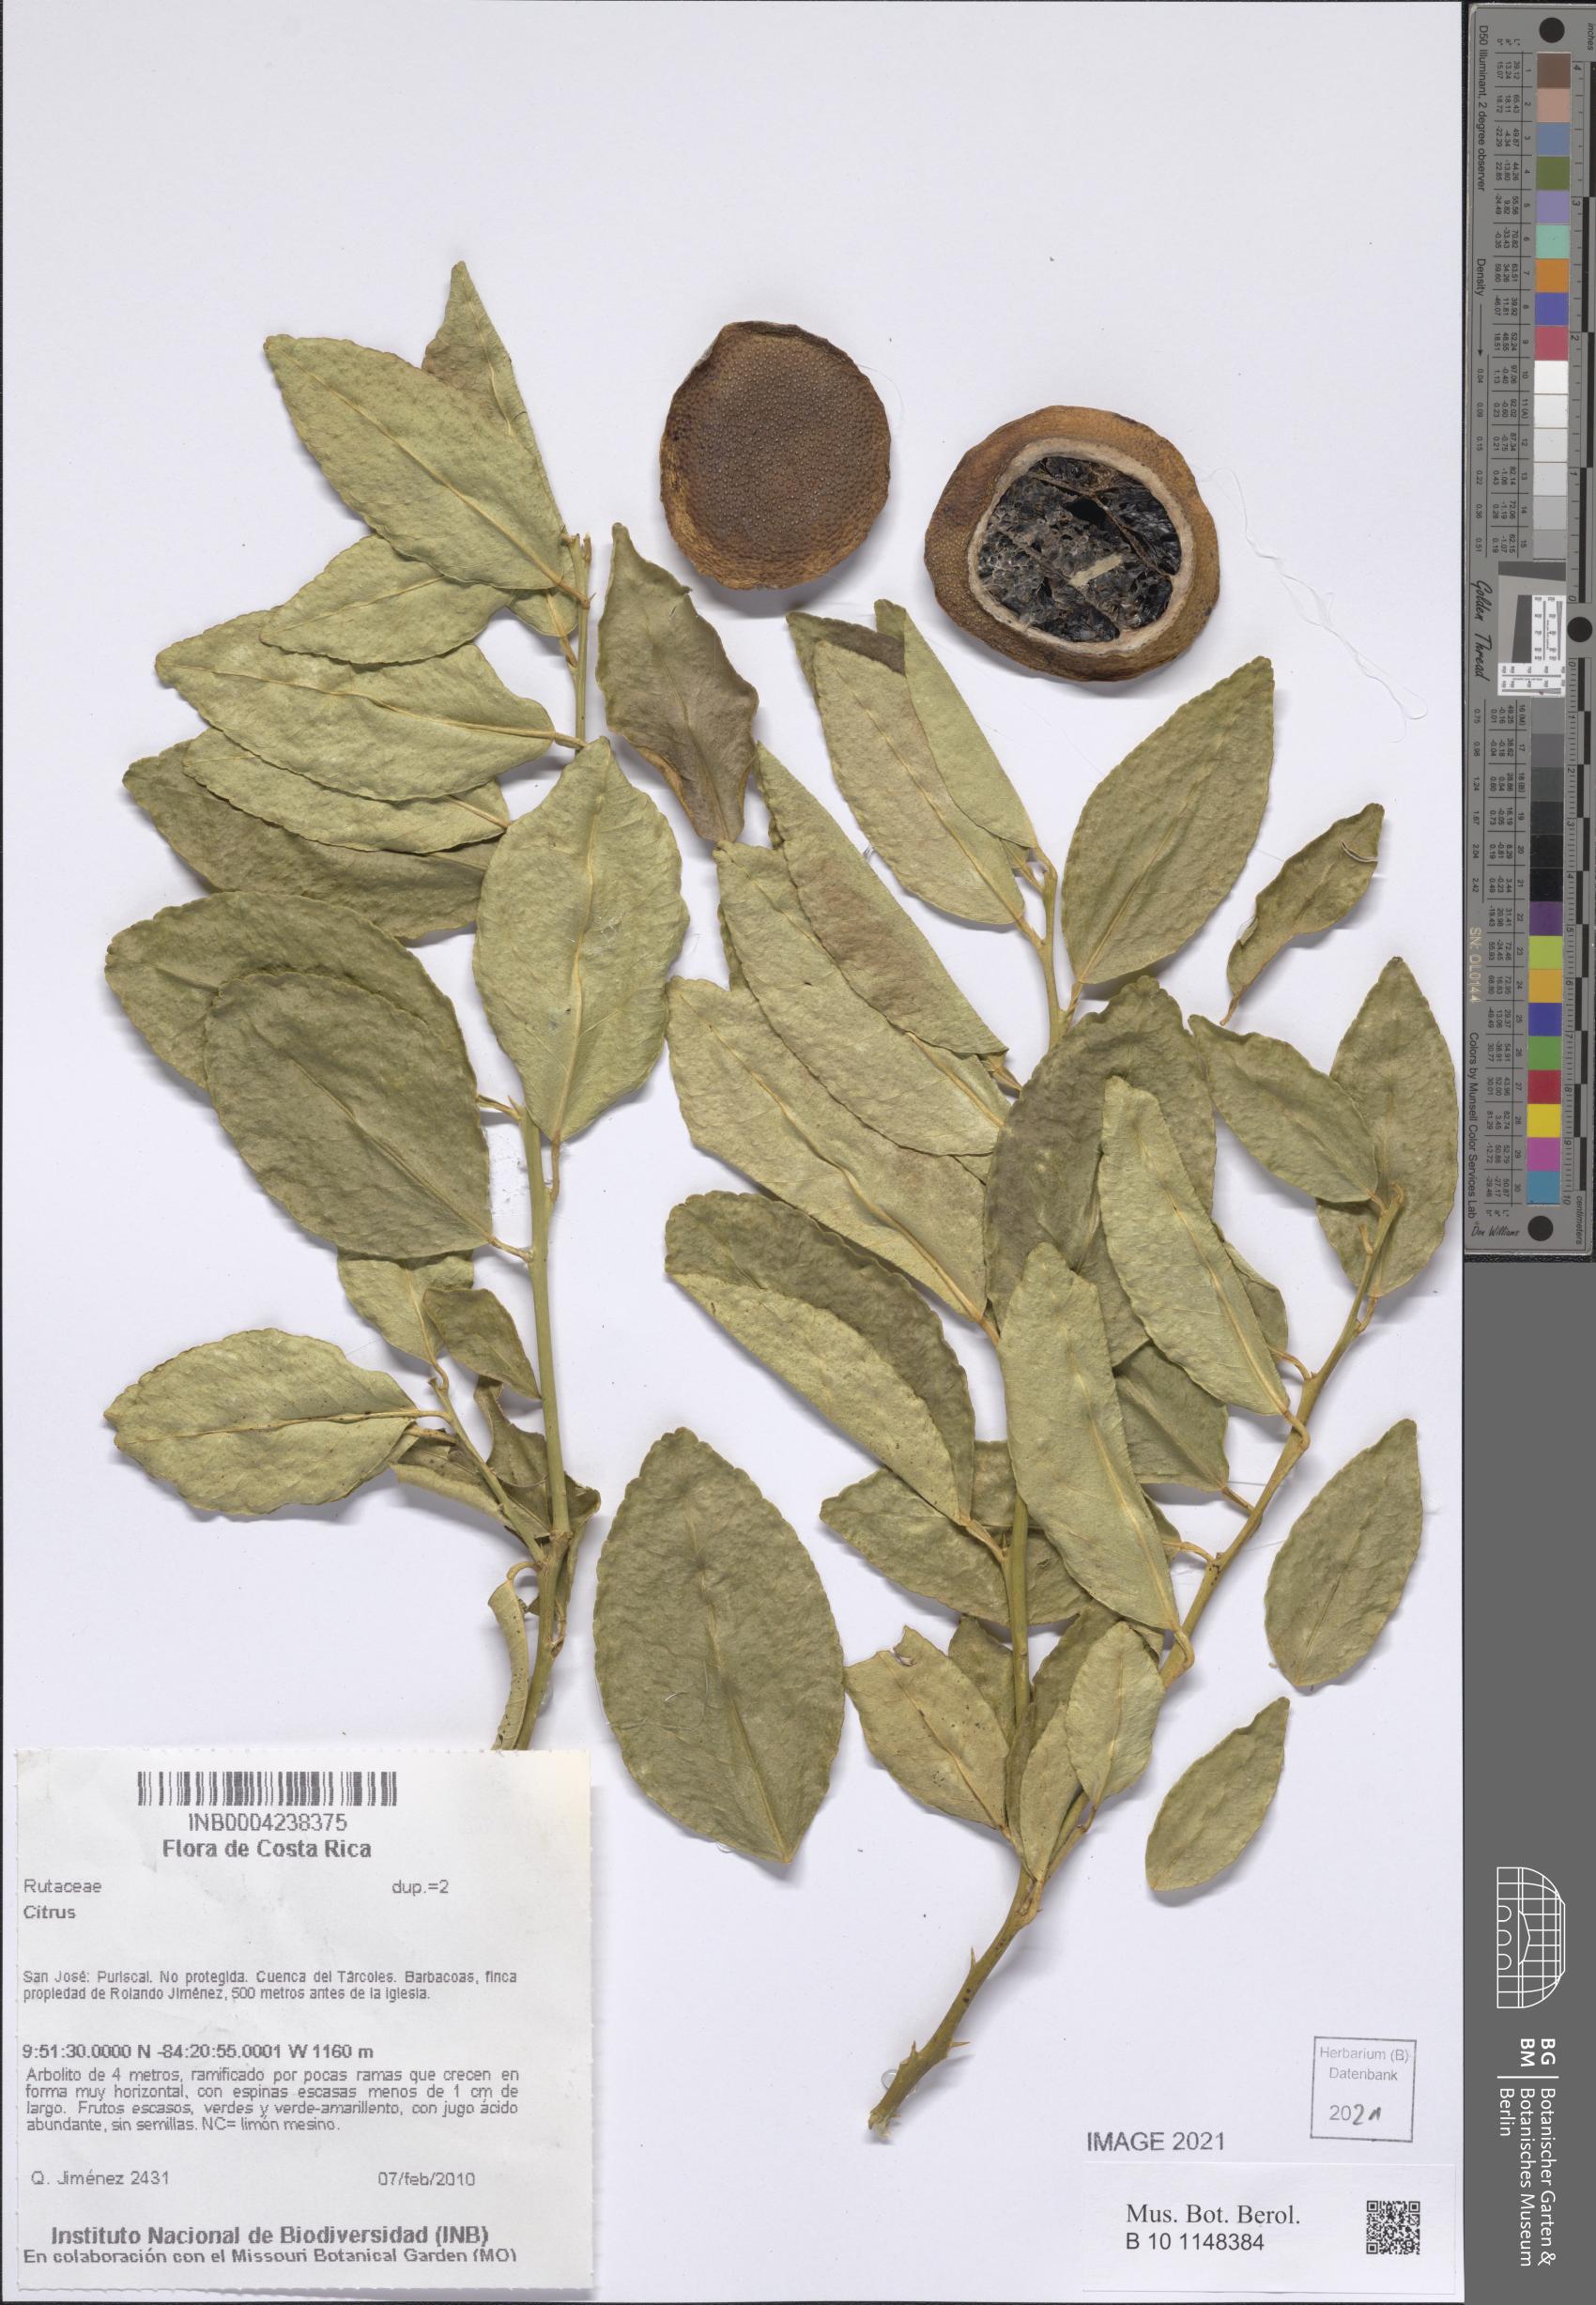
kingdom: Plantae
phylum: Tracheophyta
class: Magnoliopsida
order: Sapindales
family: Rutaceae
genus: Citrus
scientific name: Citrus
